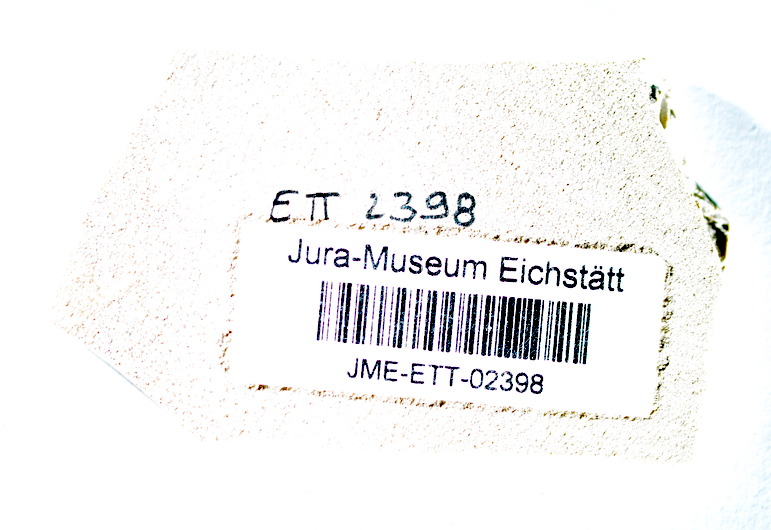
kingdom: Animalia
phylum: Chordata
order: Salmoniformes
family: Orthogonikleithridae
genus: Orthogonikleithrus
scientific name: Orthogonikleithrus hoelli
